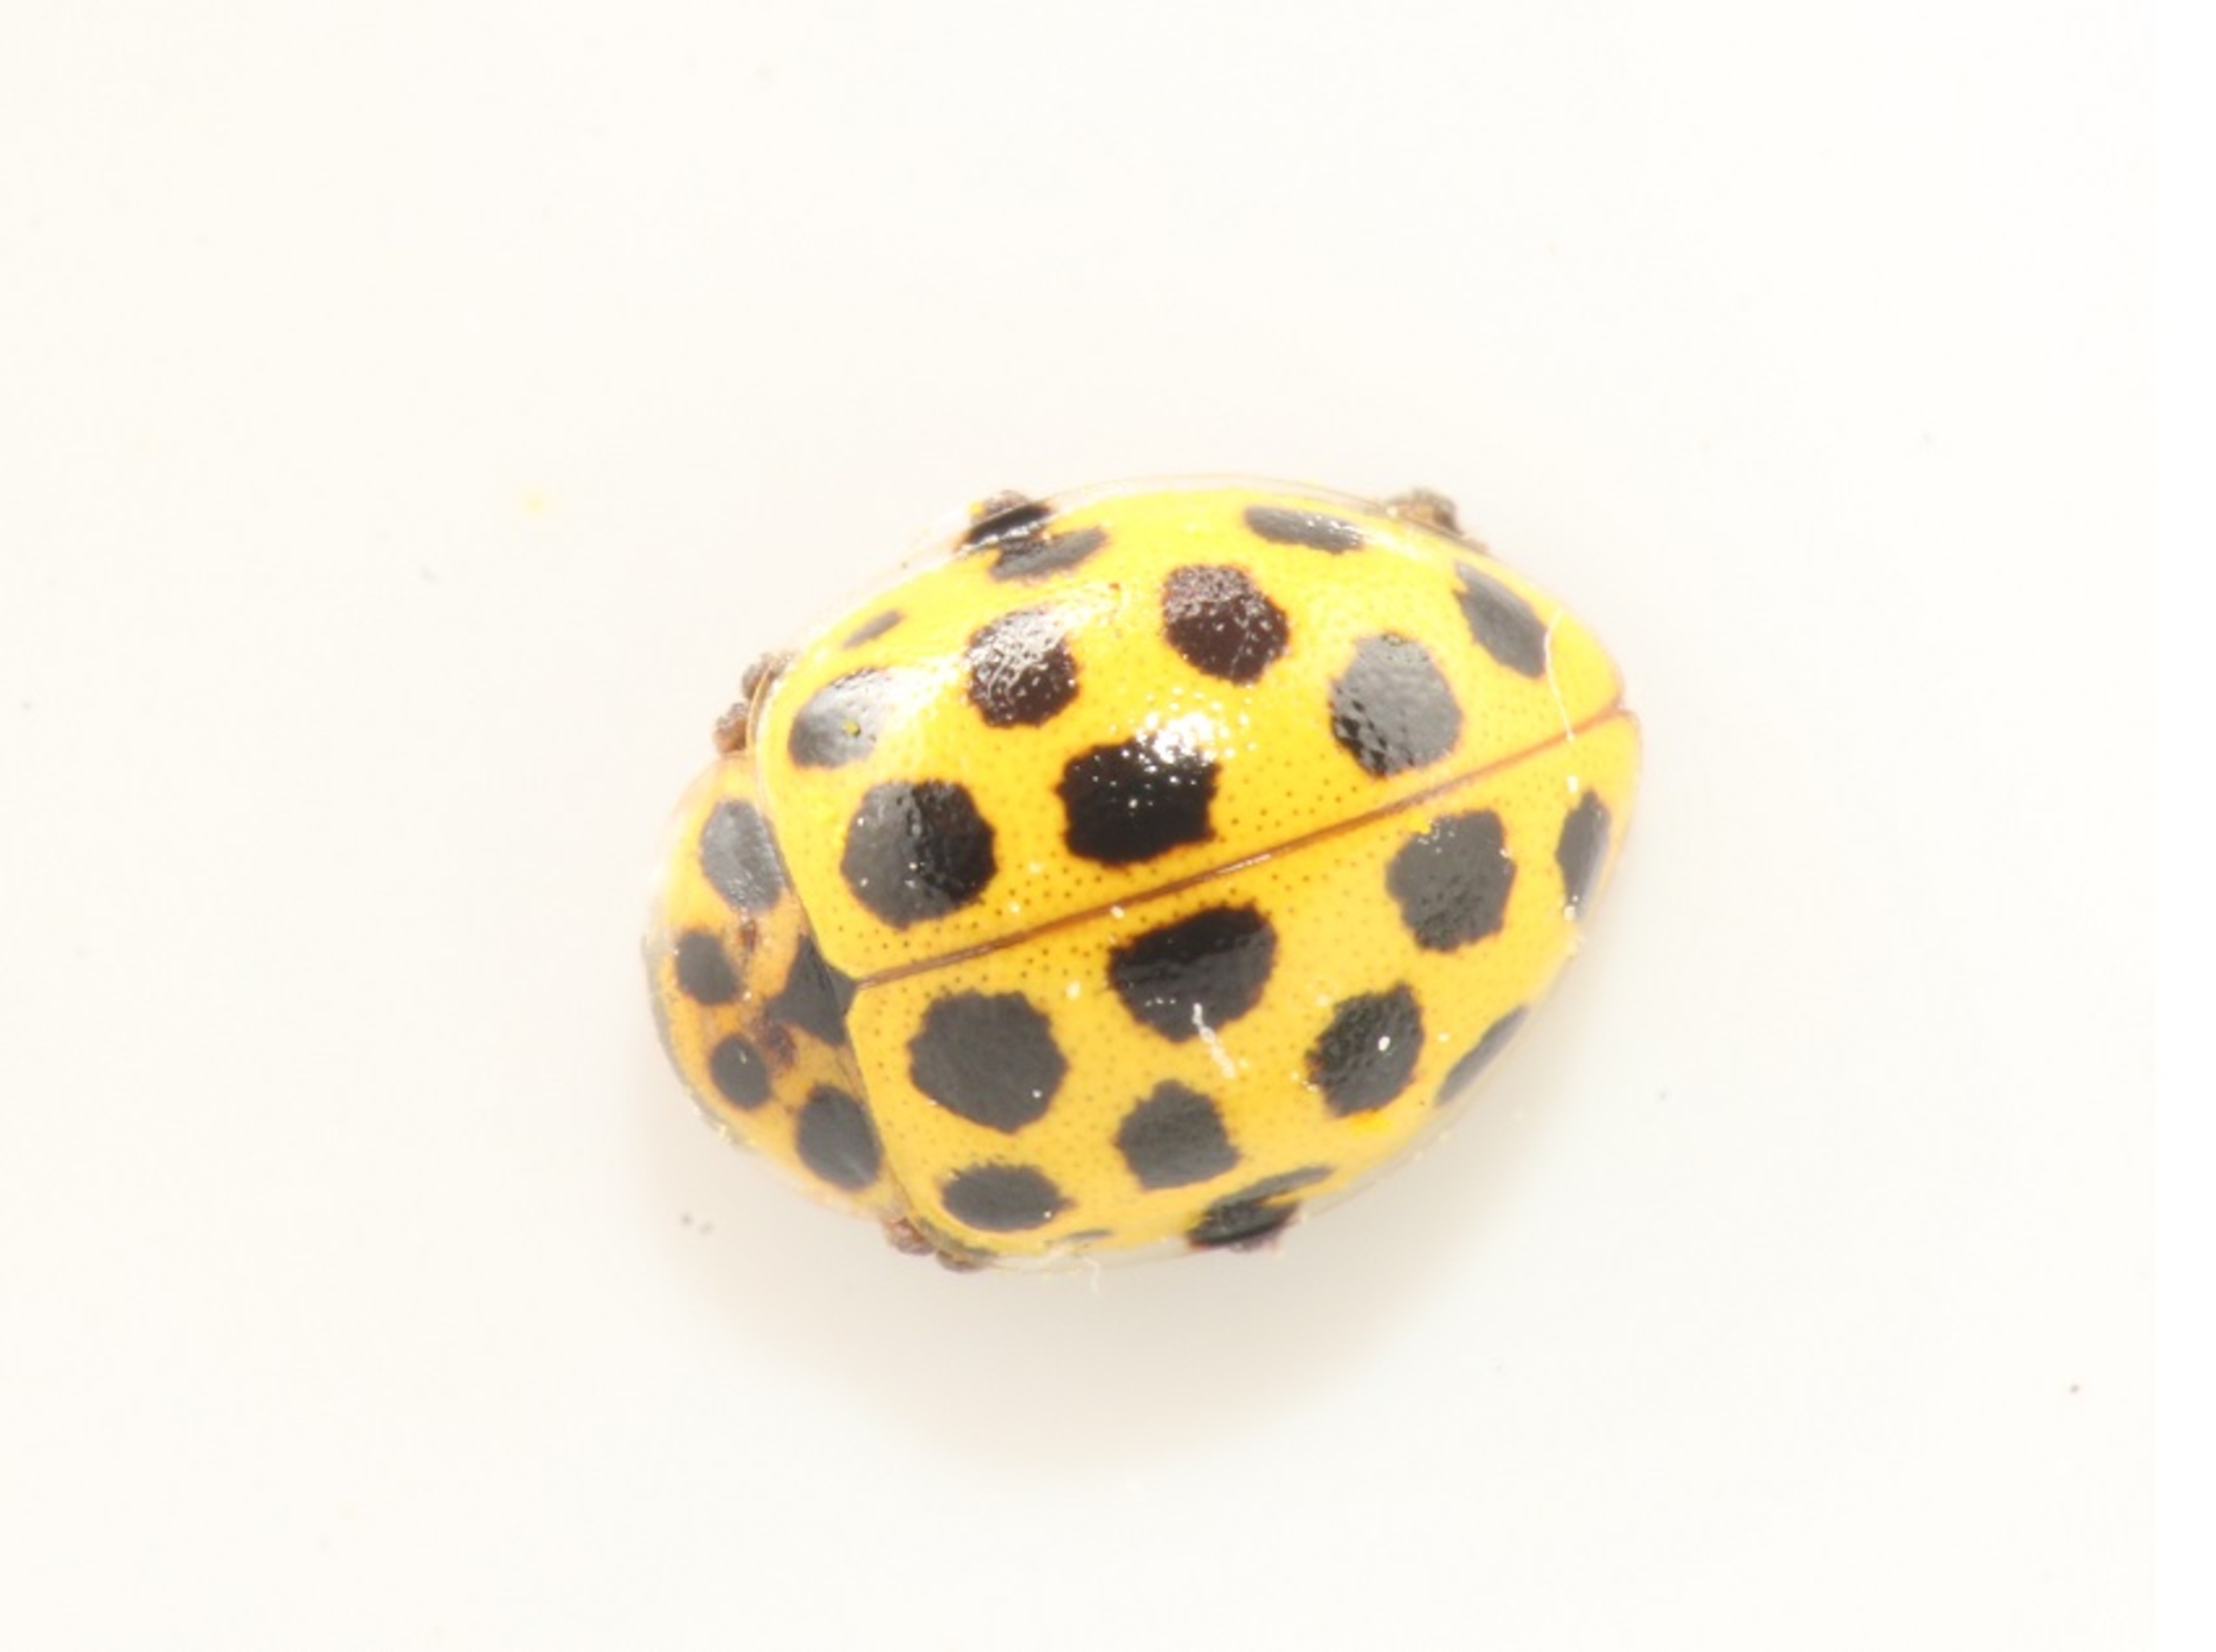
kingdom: Animalia
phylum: Arthropoda
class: Insecta
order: Coleoptera
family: Coccinellidae
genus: Psyllobora
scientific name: Psyllobora vigintiduopunctata
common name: Toogtyveplettet mariehøne
